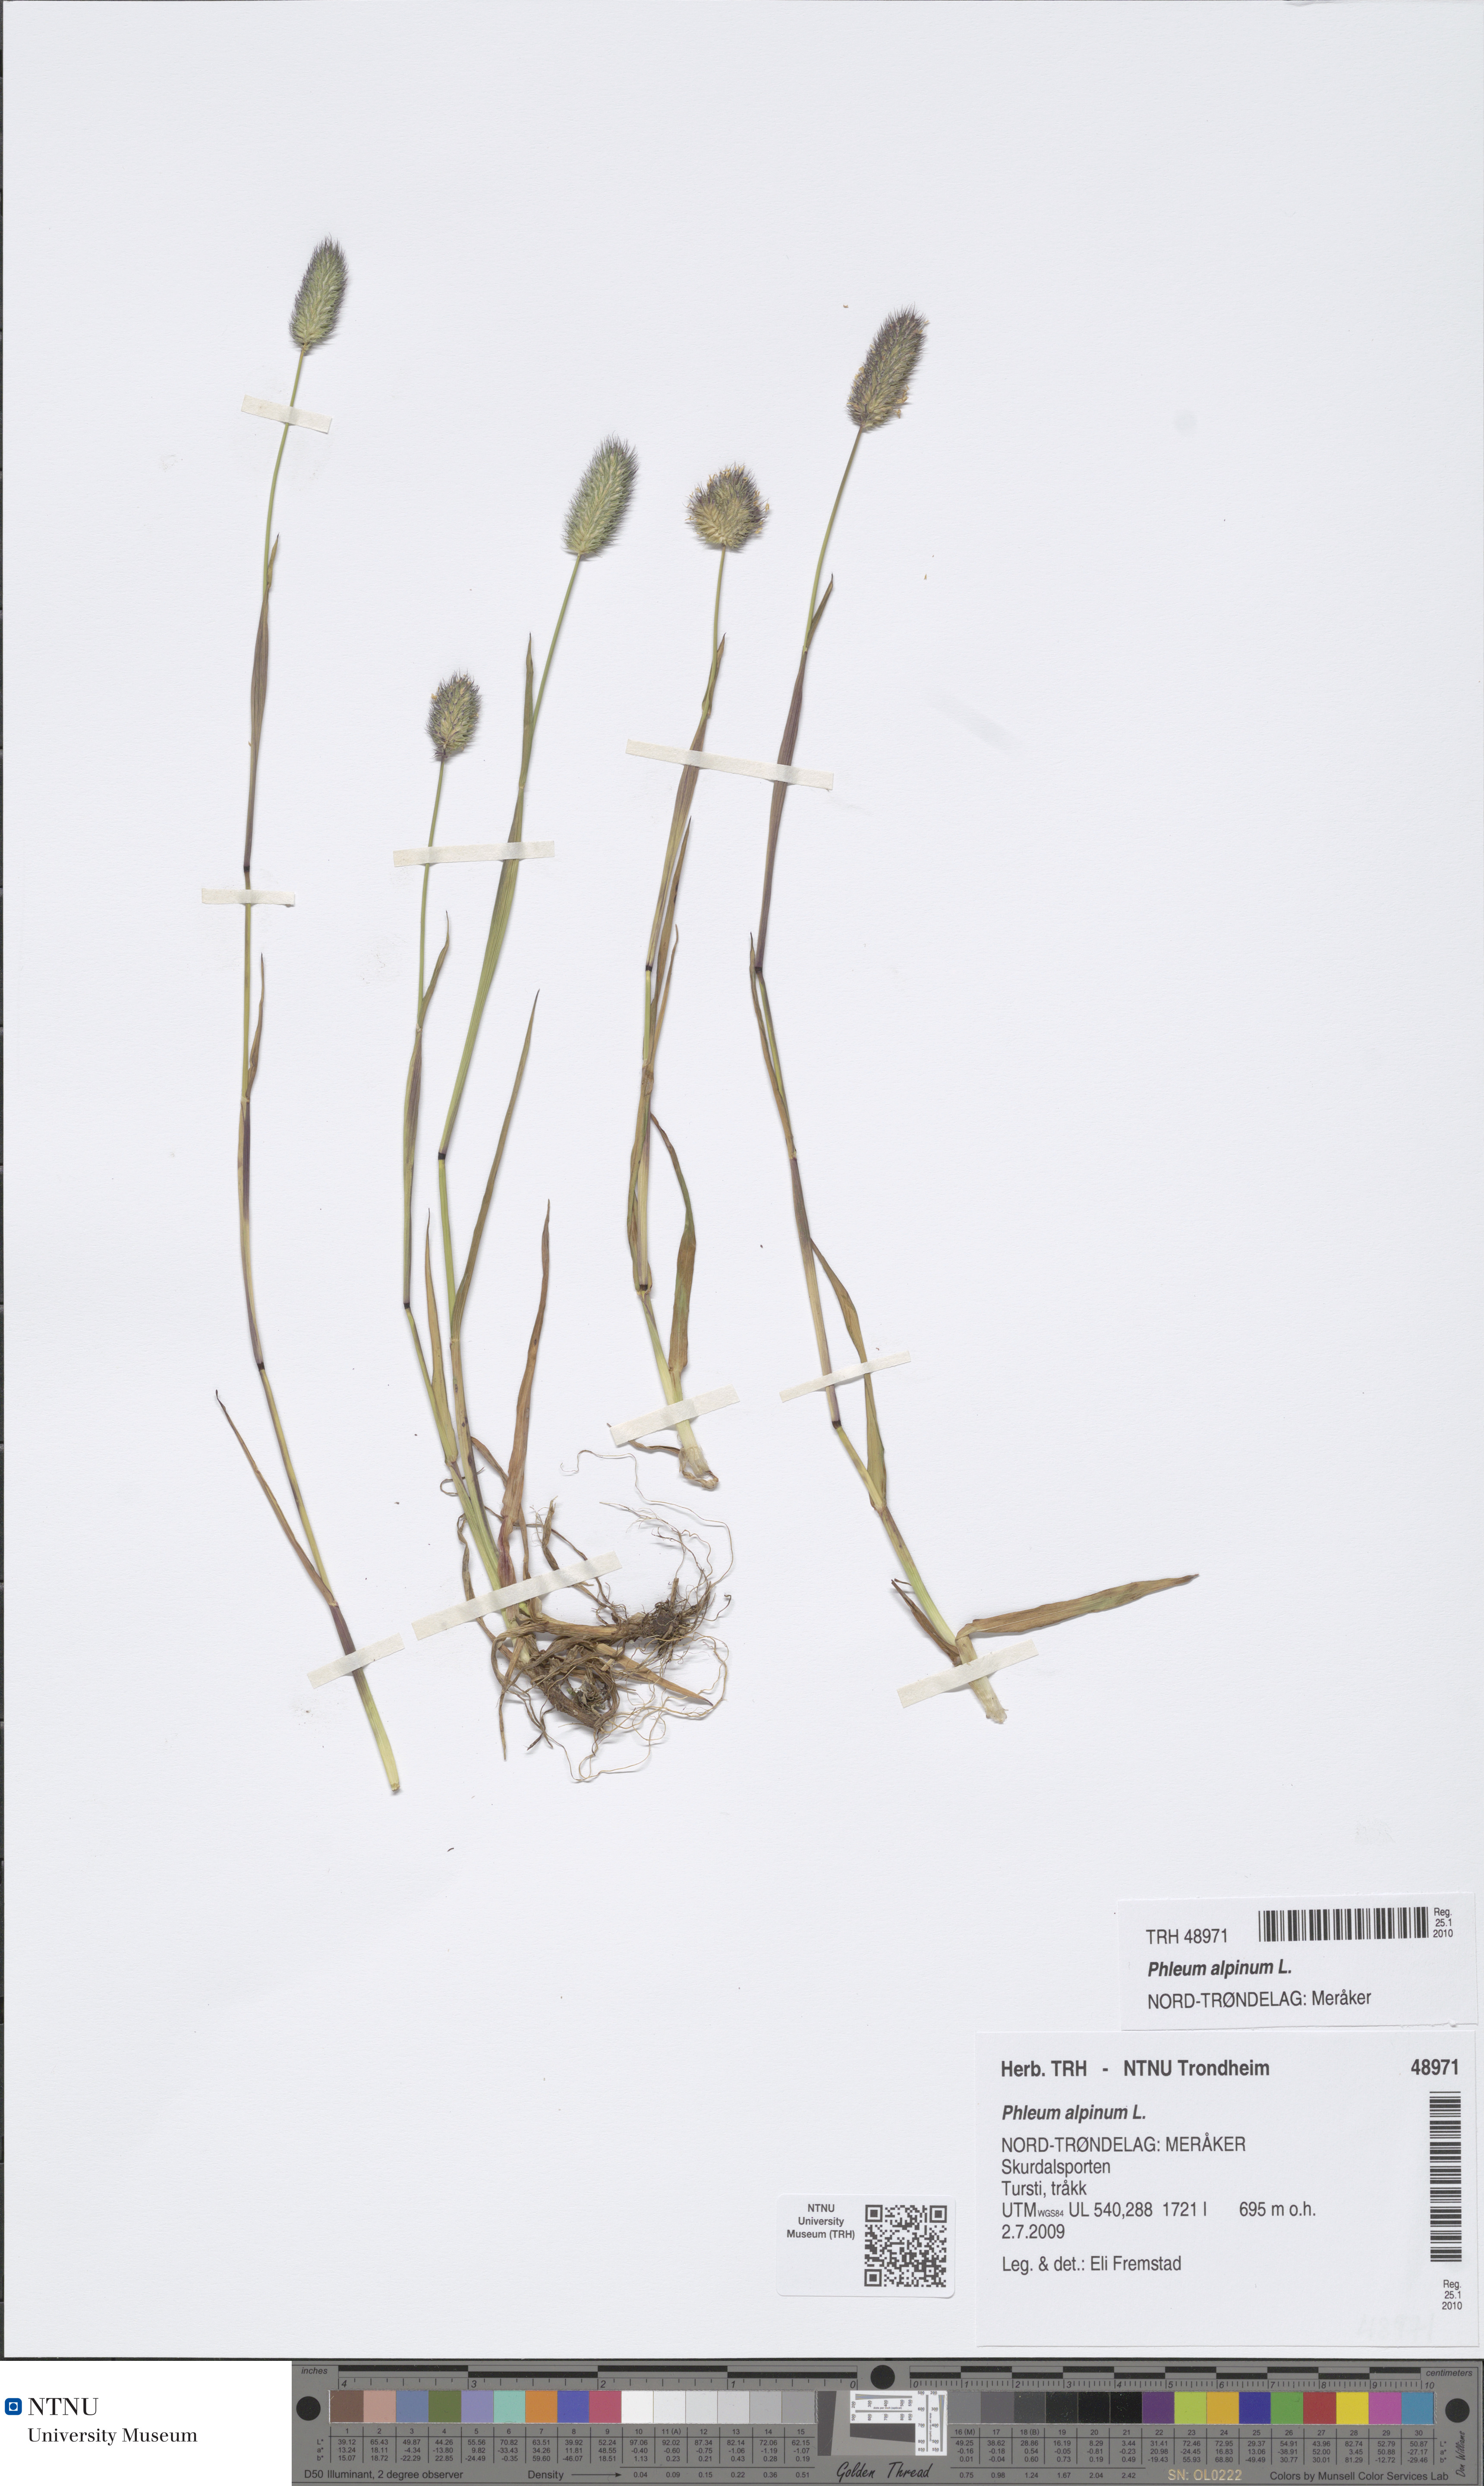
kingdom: Plantae
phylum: Tracheophyta
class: Liliopsida
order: Poales
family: Poaceae
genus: Phleum
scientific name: Phleum alpinum
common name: Alpine cat's-tail
